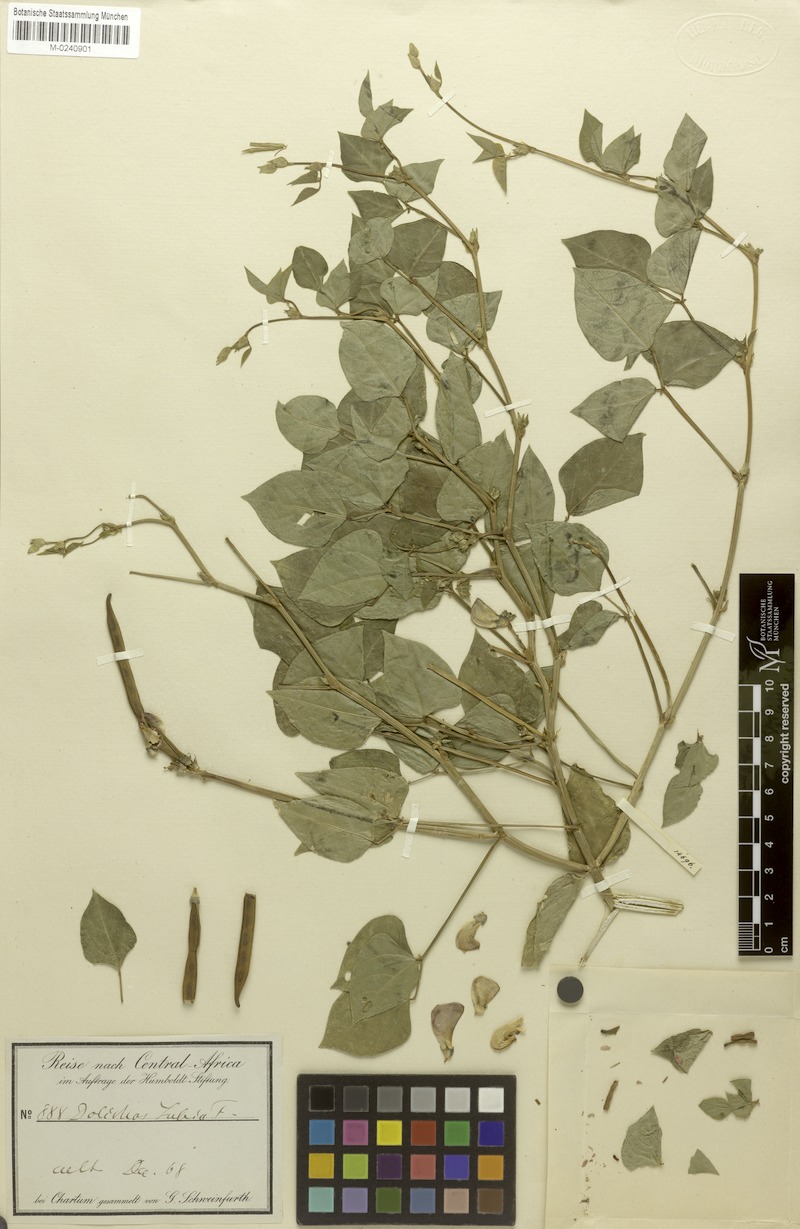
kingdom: Plantae
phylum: Tracheophyta
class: Magnoliopsida
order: Fabales
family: Fabaceae
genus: Vigna
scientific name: Vigna unguiculata
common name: Cowpea
